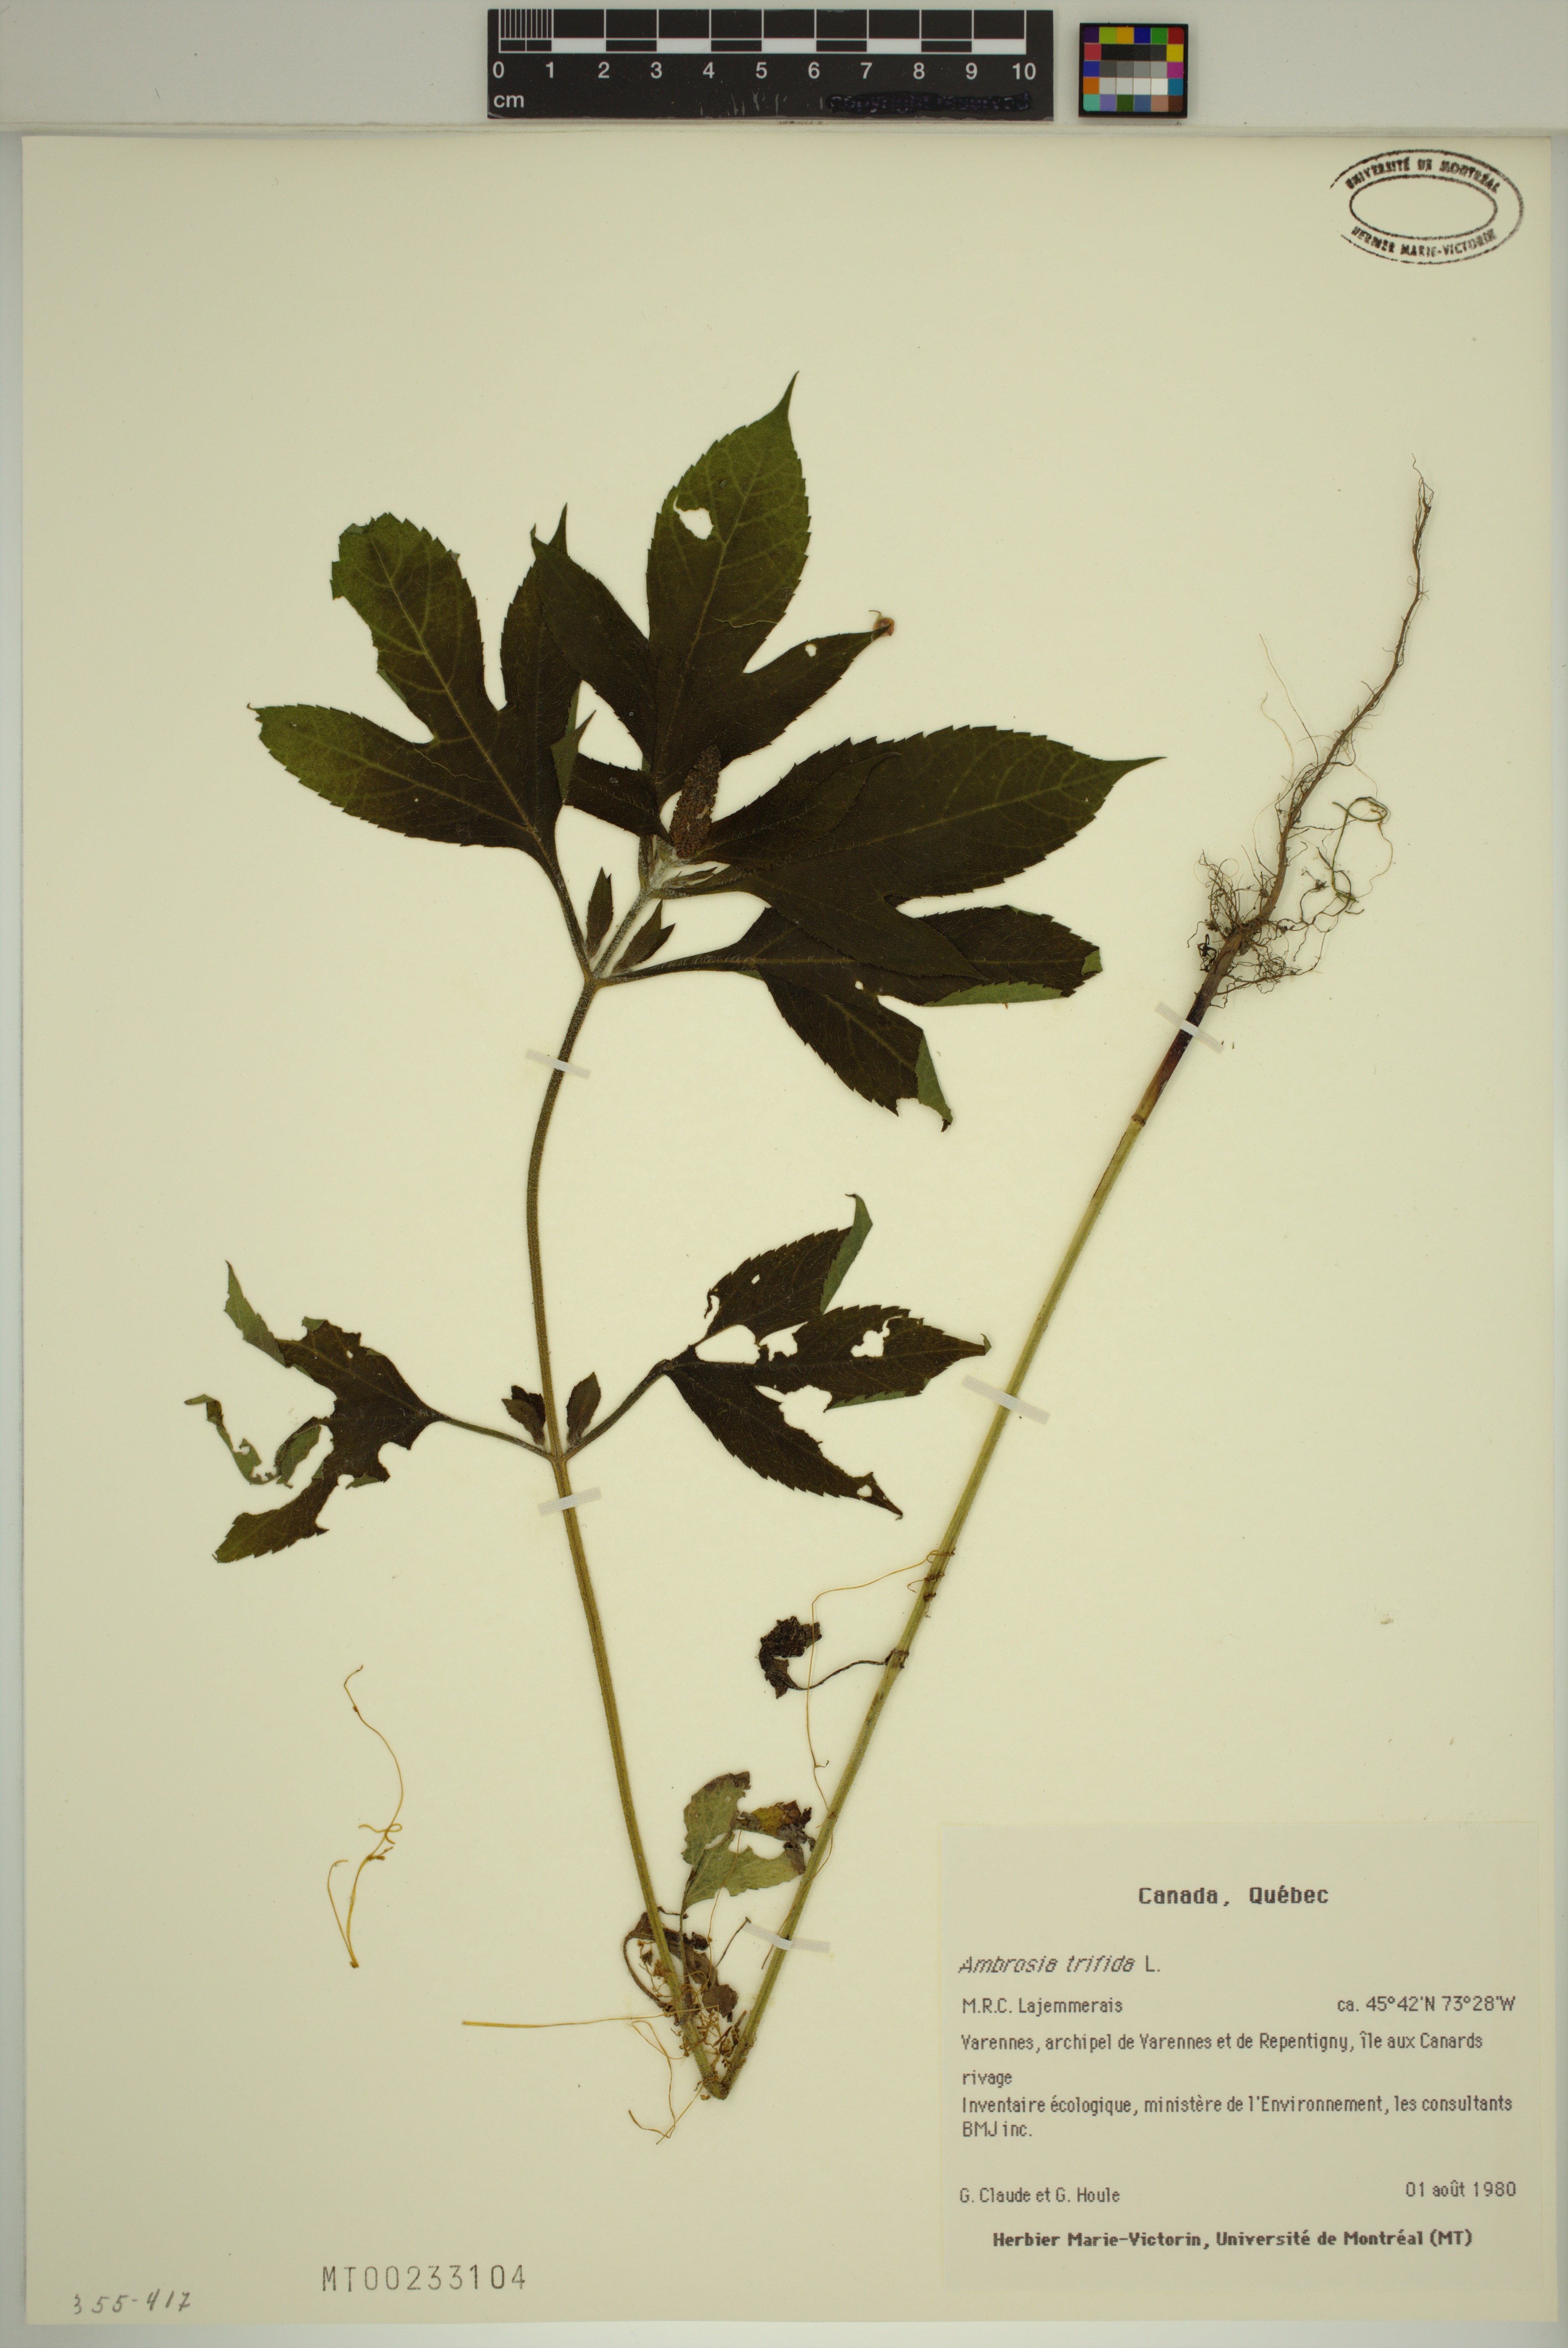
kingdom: Plantae
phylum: Tracheophyta
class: Magnoliopsida
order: Asterales
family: Asteraceae
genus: Ambrosia
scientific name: Ambrosia trifida
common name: Giant ragweed
